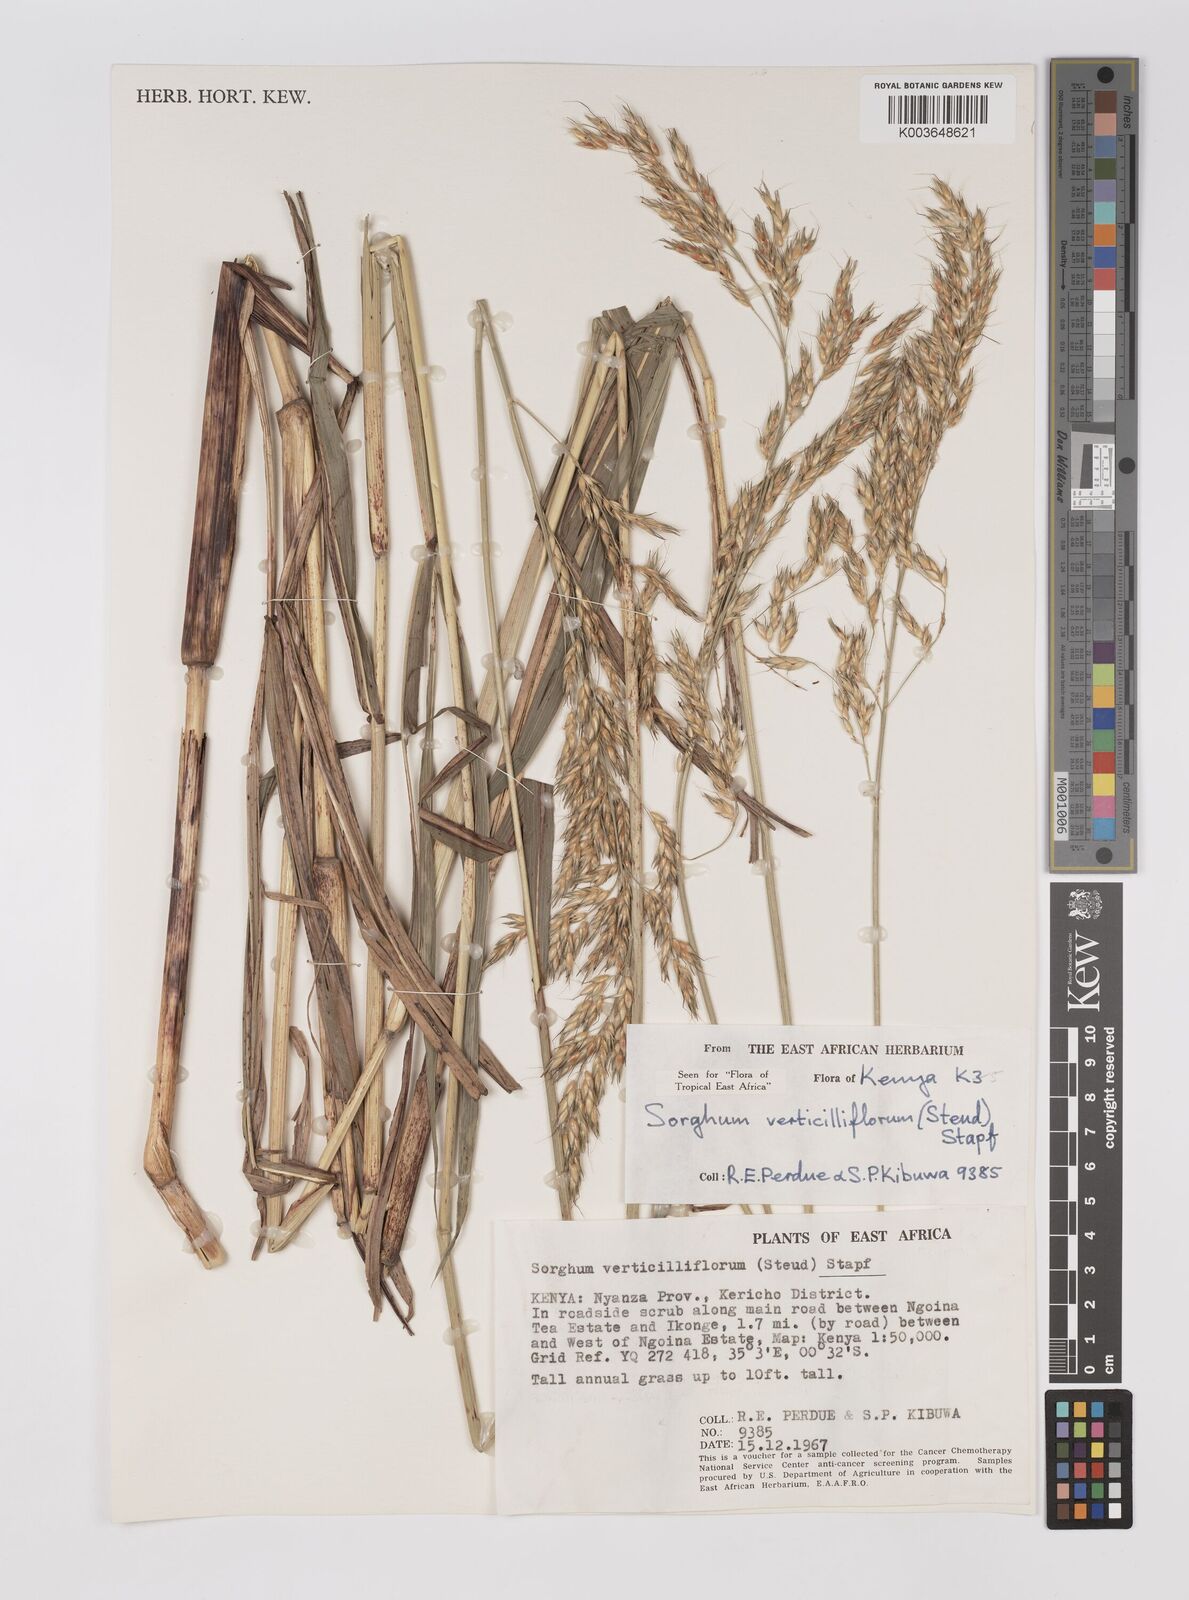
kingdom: Plantae
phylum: Tracheophyta
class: Liliopsida
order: Poales
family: Poaceae
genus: Sorghum
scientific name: Sorghum arundinaceum
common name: Sorghum
